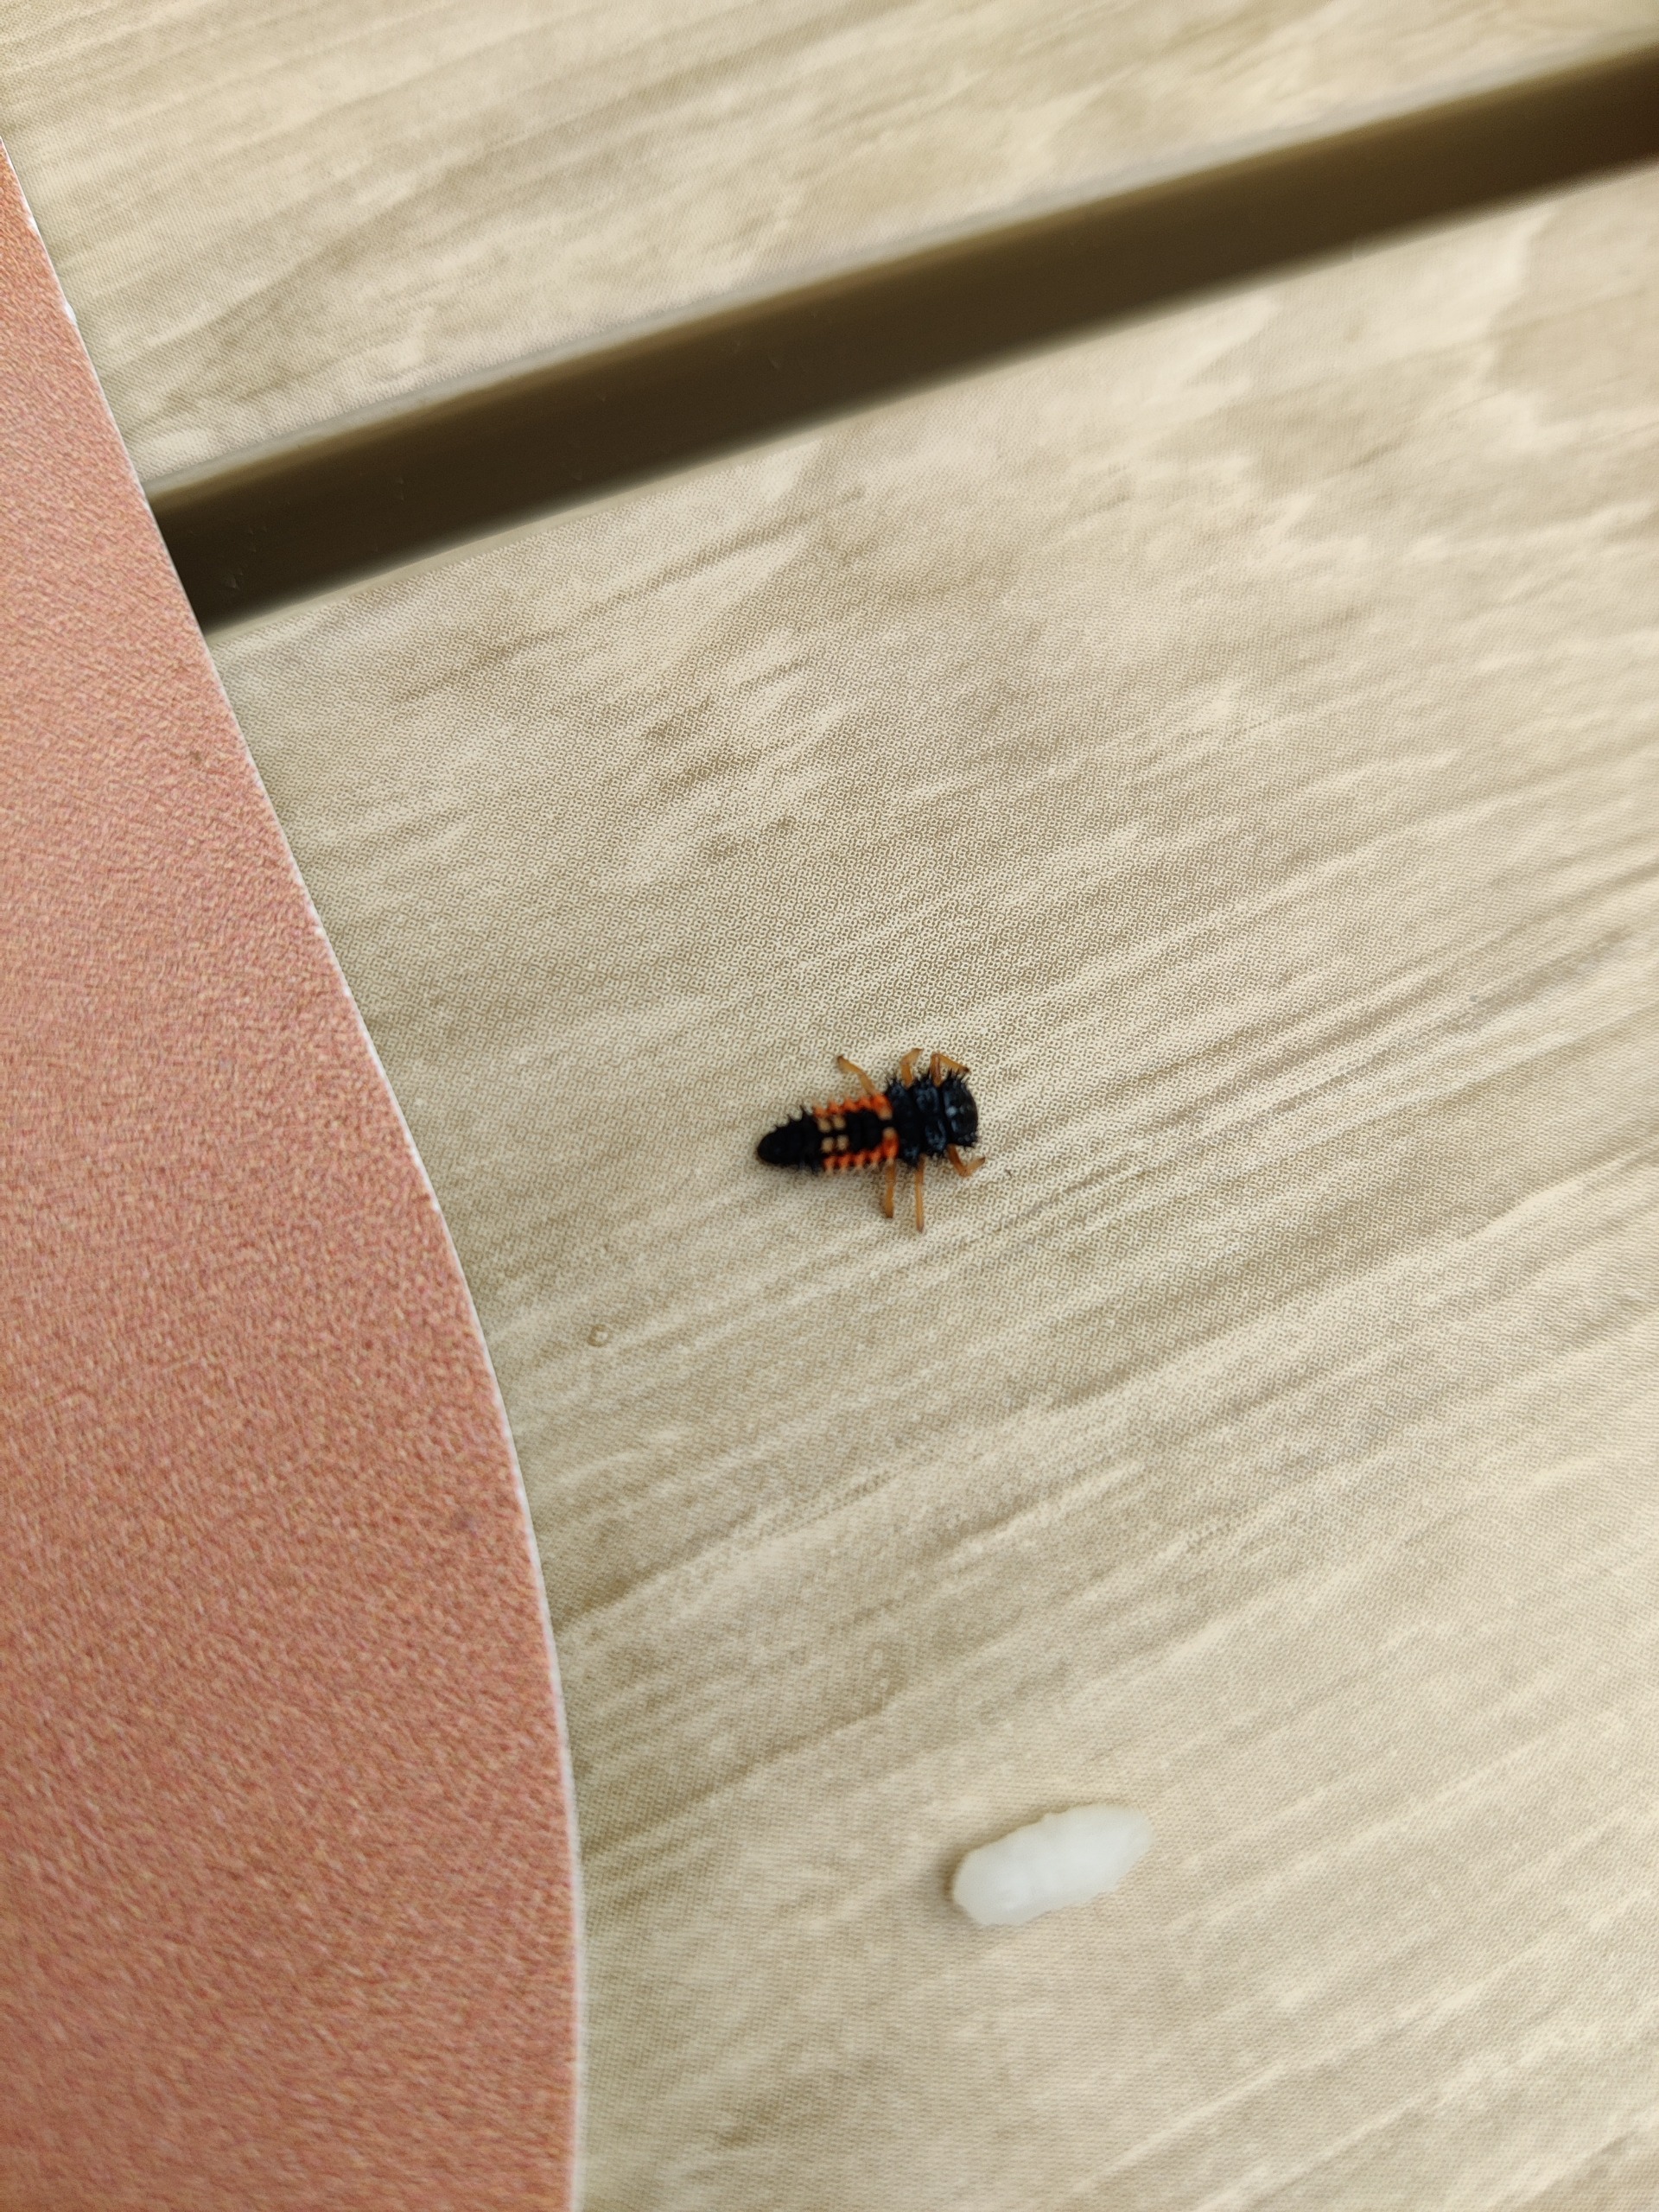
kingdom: Animalia
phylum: Arthropoda
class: Insecta
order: Coleoptera
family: Coccinellidae
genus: Harmonia
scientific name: Harmonia axyridis
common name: Harlekinmariehøne
